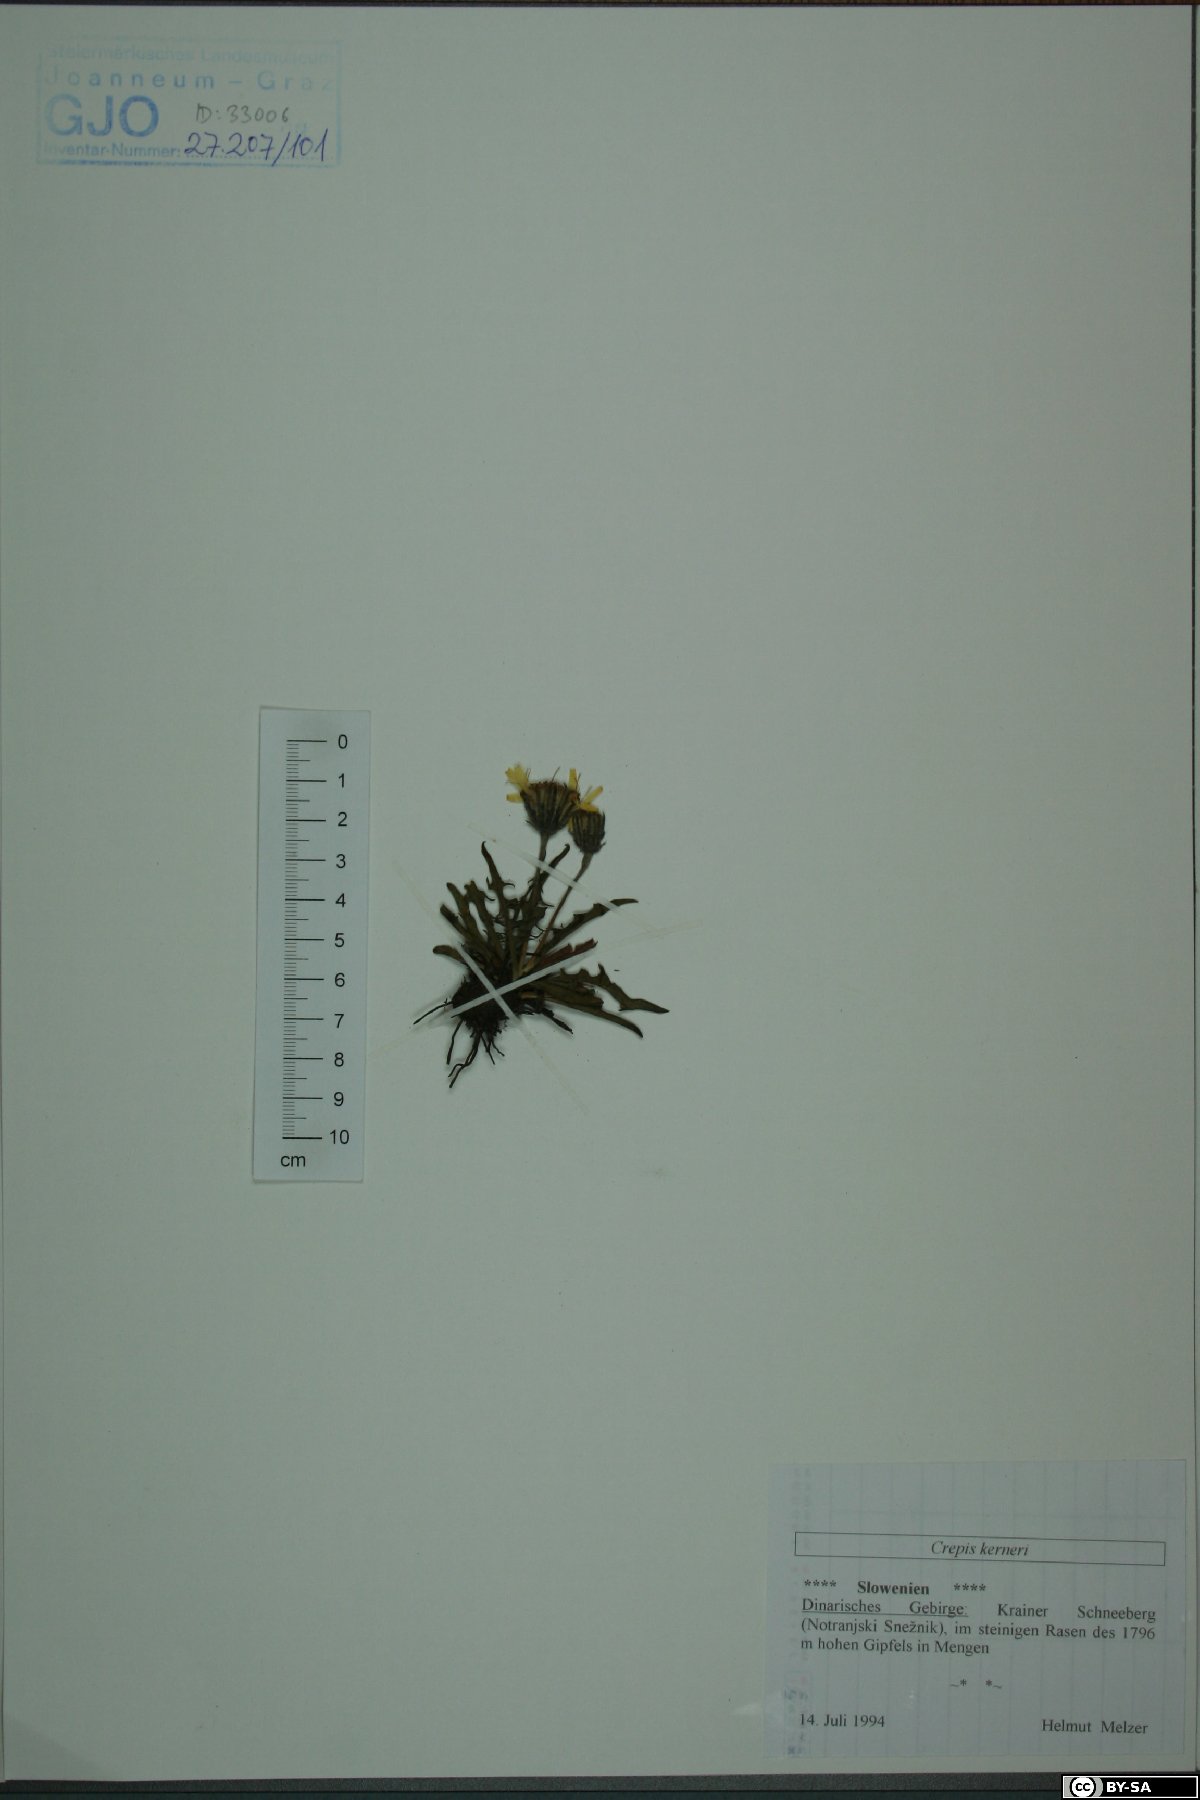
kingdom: Plantae
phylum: Tracheophyta
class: Magnoliopsida
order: Asterales
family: Asteraceae
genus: Crepis
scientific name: Crepis jacquinii
